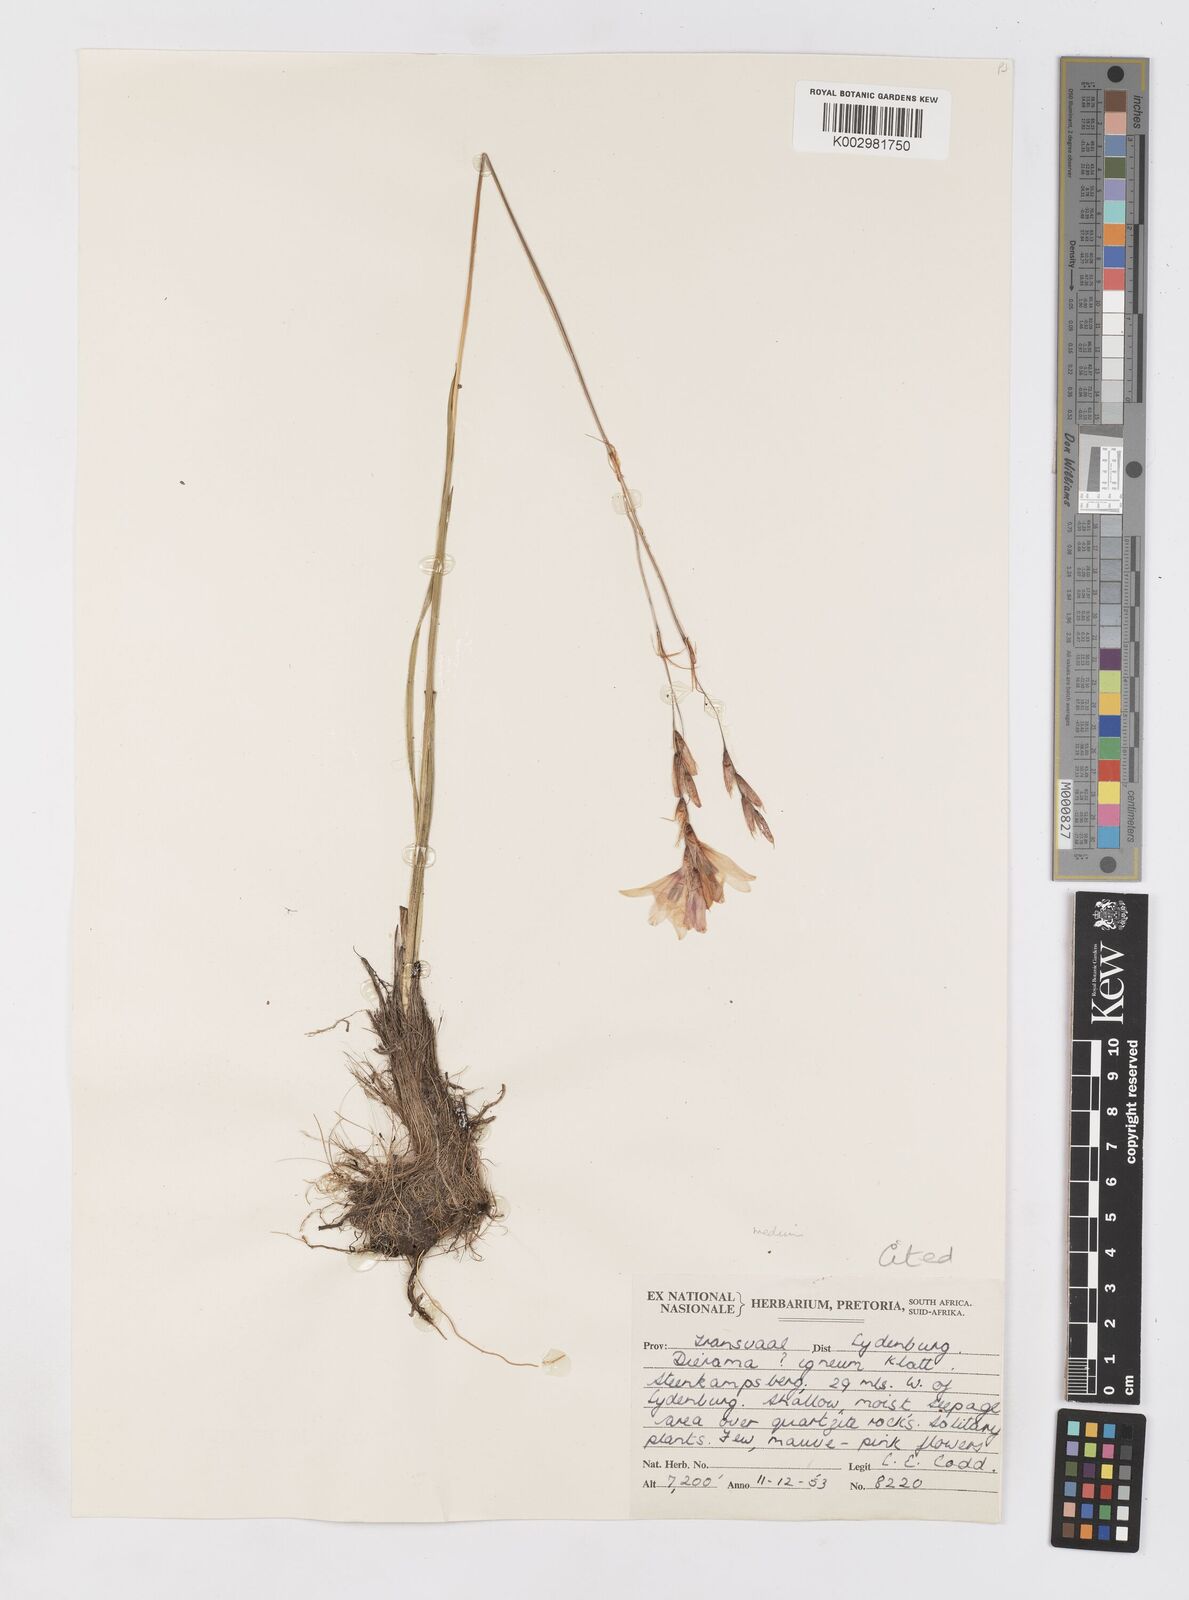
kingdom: Plantae
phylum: Tracheophyta
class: Liliopsida
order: Asparagales
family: Iridaceae
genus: Dierama
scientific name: Dierama pauciflorum
